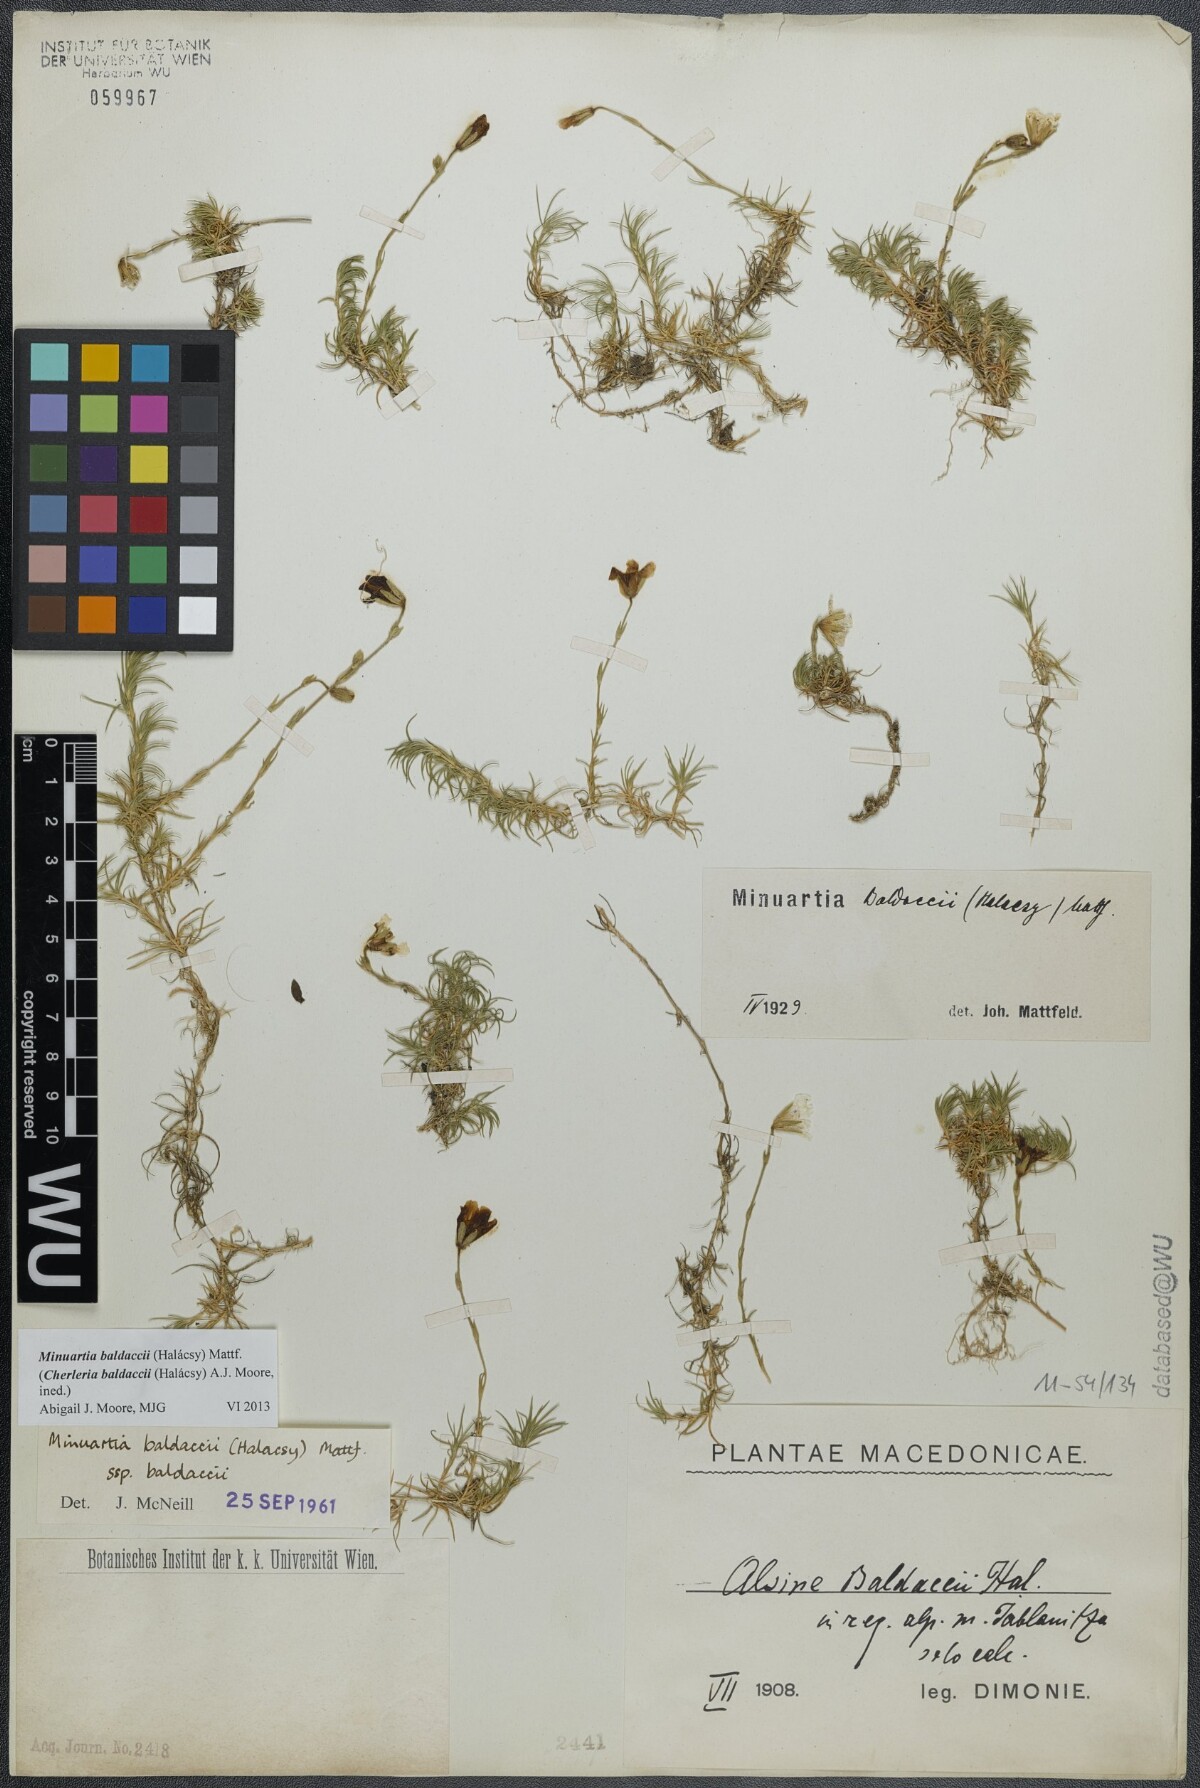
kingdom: Plantae
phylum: Tracheophyta
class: Magnoliopsida
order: Caryophyllales
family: Caryophyllaceae
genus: Cherleria
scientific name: Cherleria baldaccii
